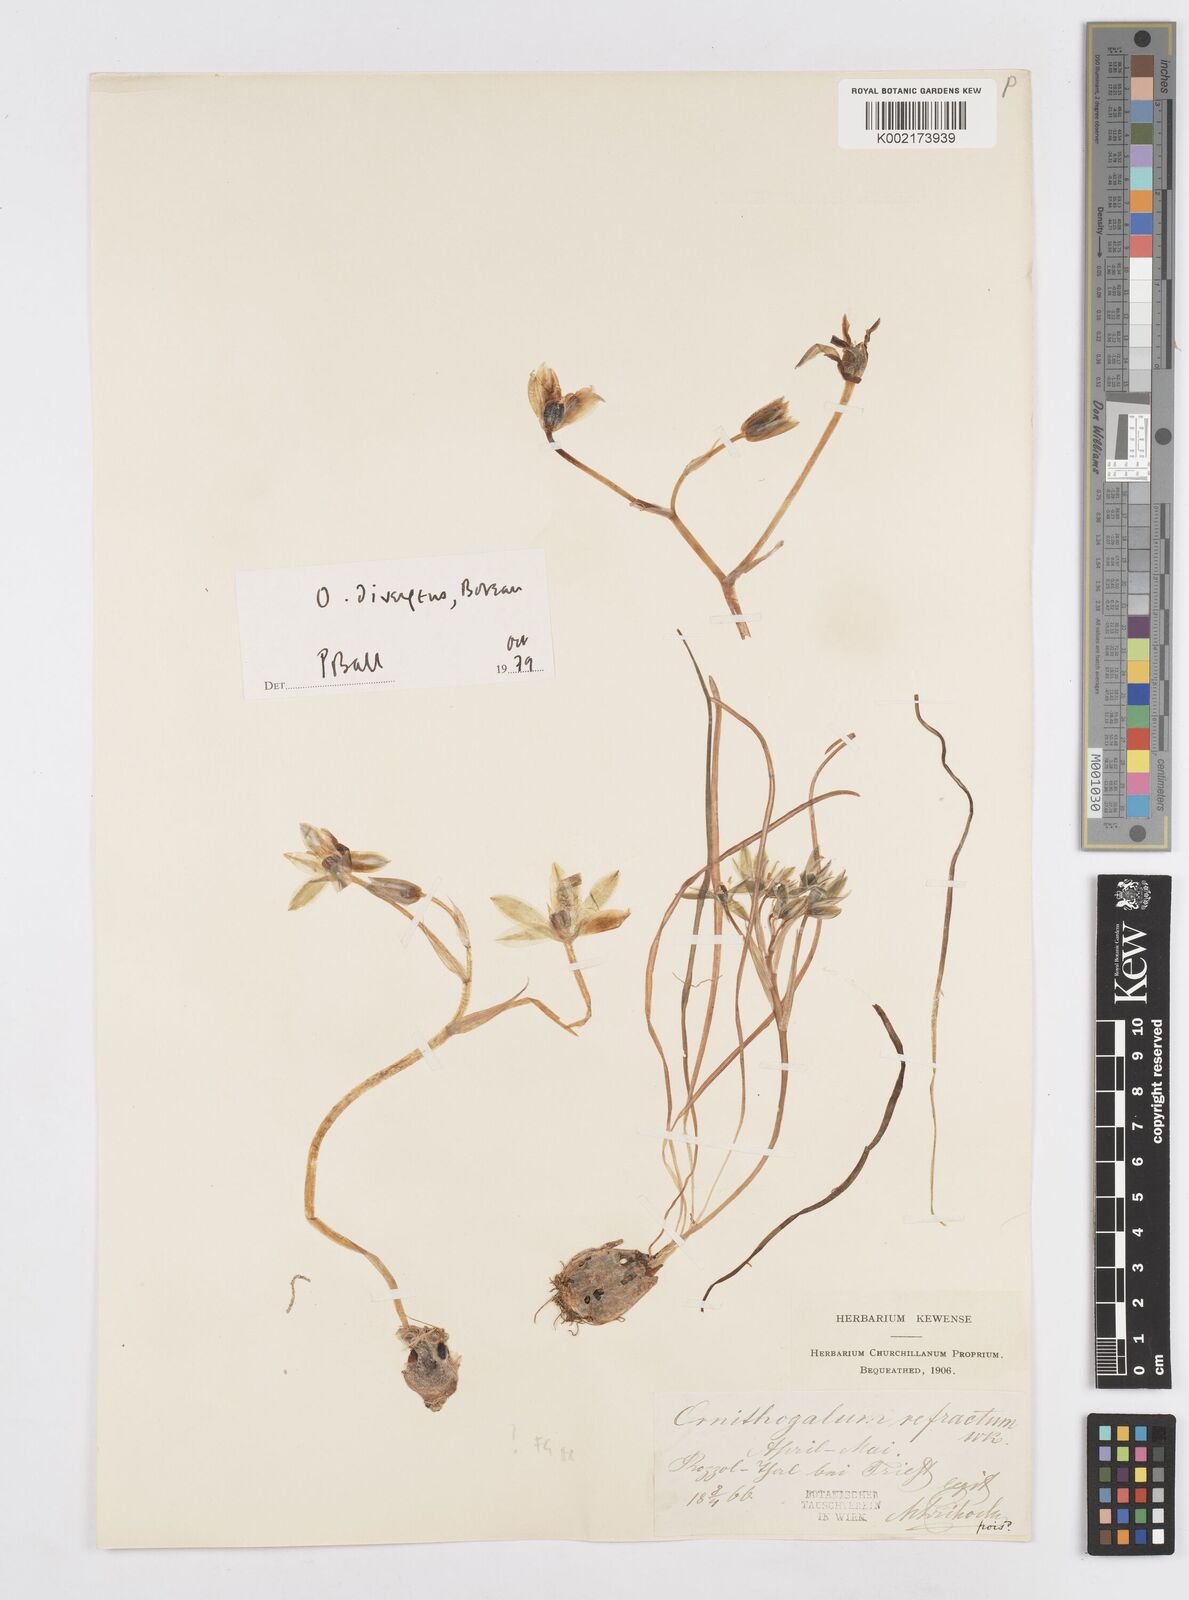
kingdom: Plantae
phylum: Tracheophyta
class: Liliopsida
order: Asparagales
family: Asparagaceae
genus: Ornithogalum
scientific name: Ornithogalum refractum
